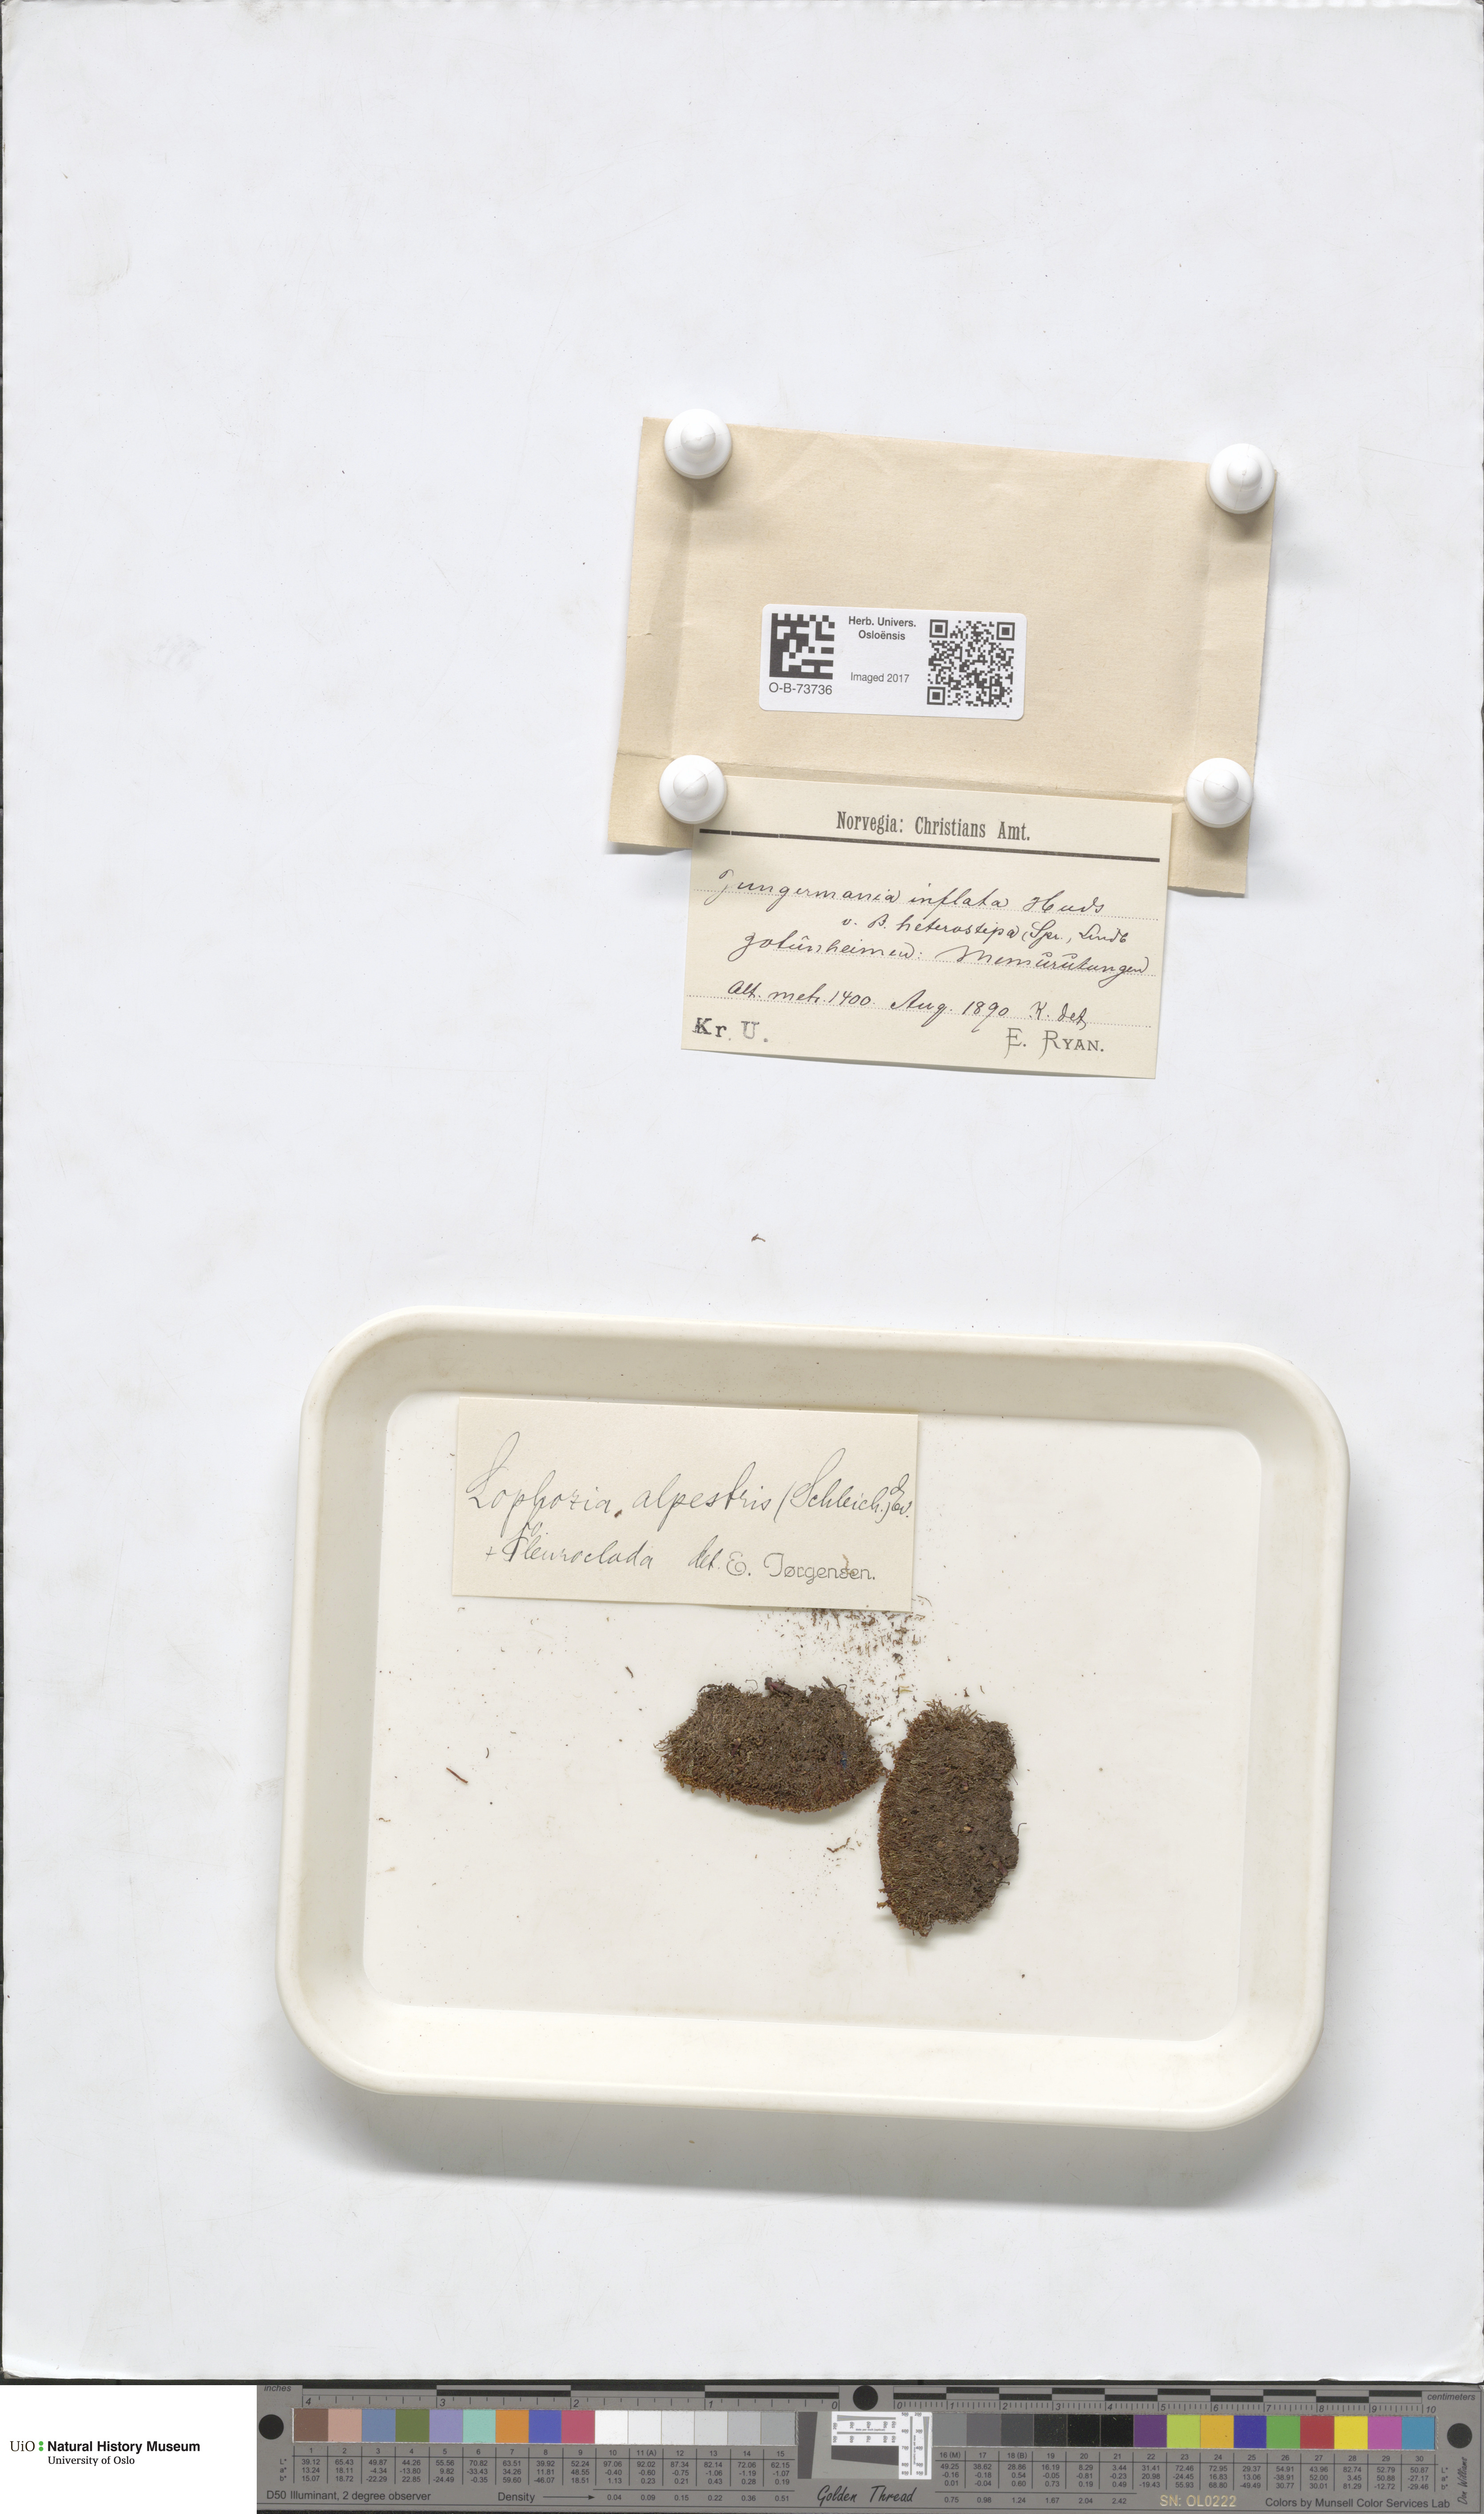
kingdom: Plantae
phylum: Marchantiophyta
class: Jungermanniopsida
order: Jungermanniales
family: Anastrophyllaceae
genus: Barbilophozia
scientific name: Barbilophozia sudetica
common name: Hill notchwort
